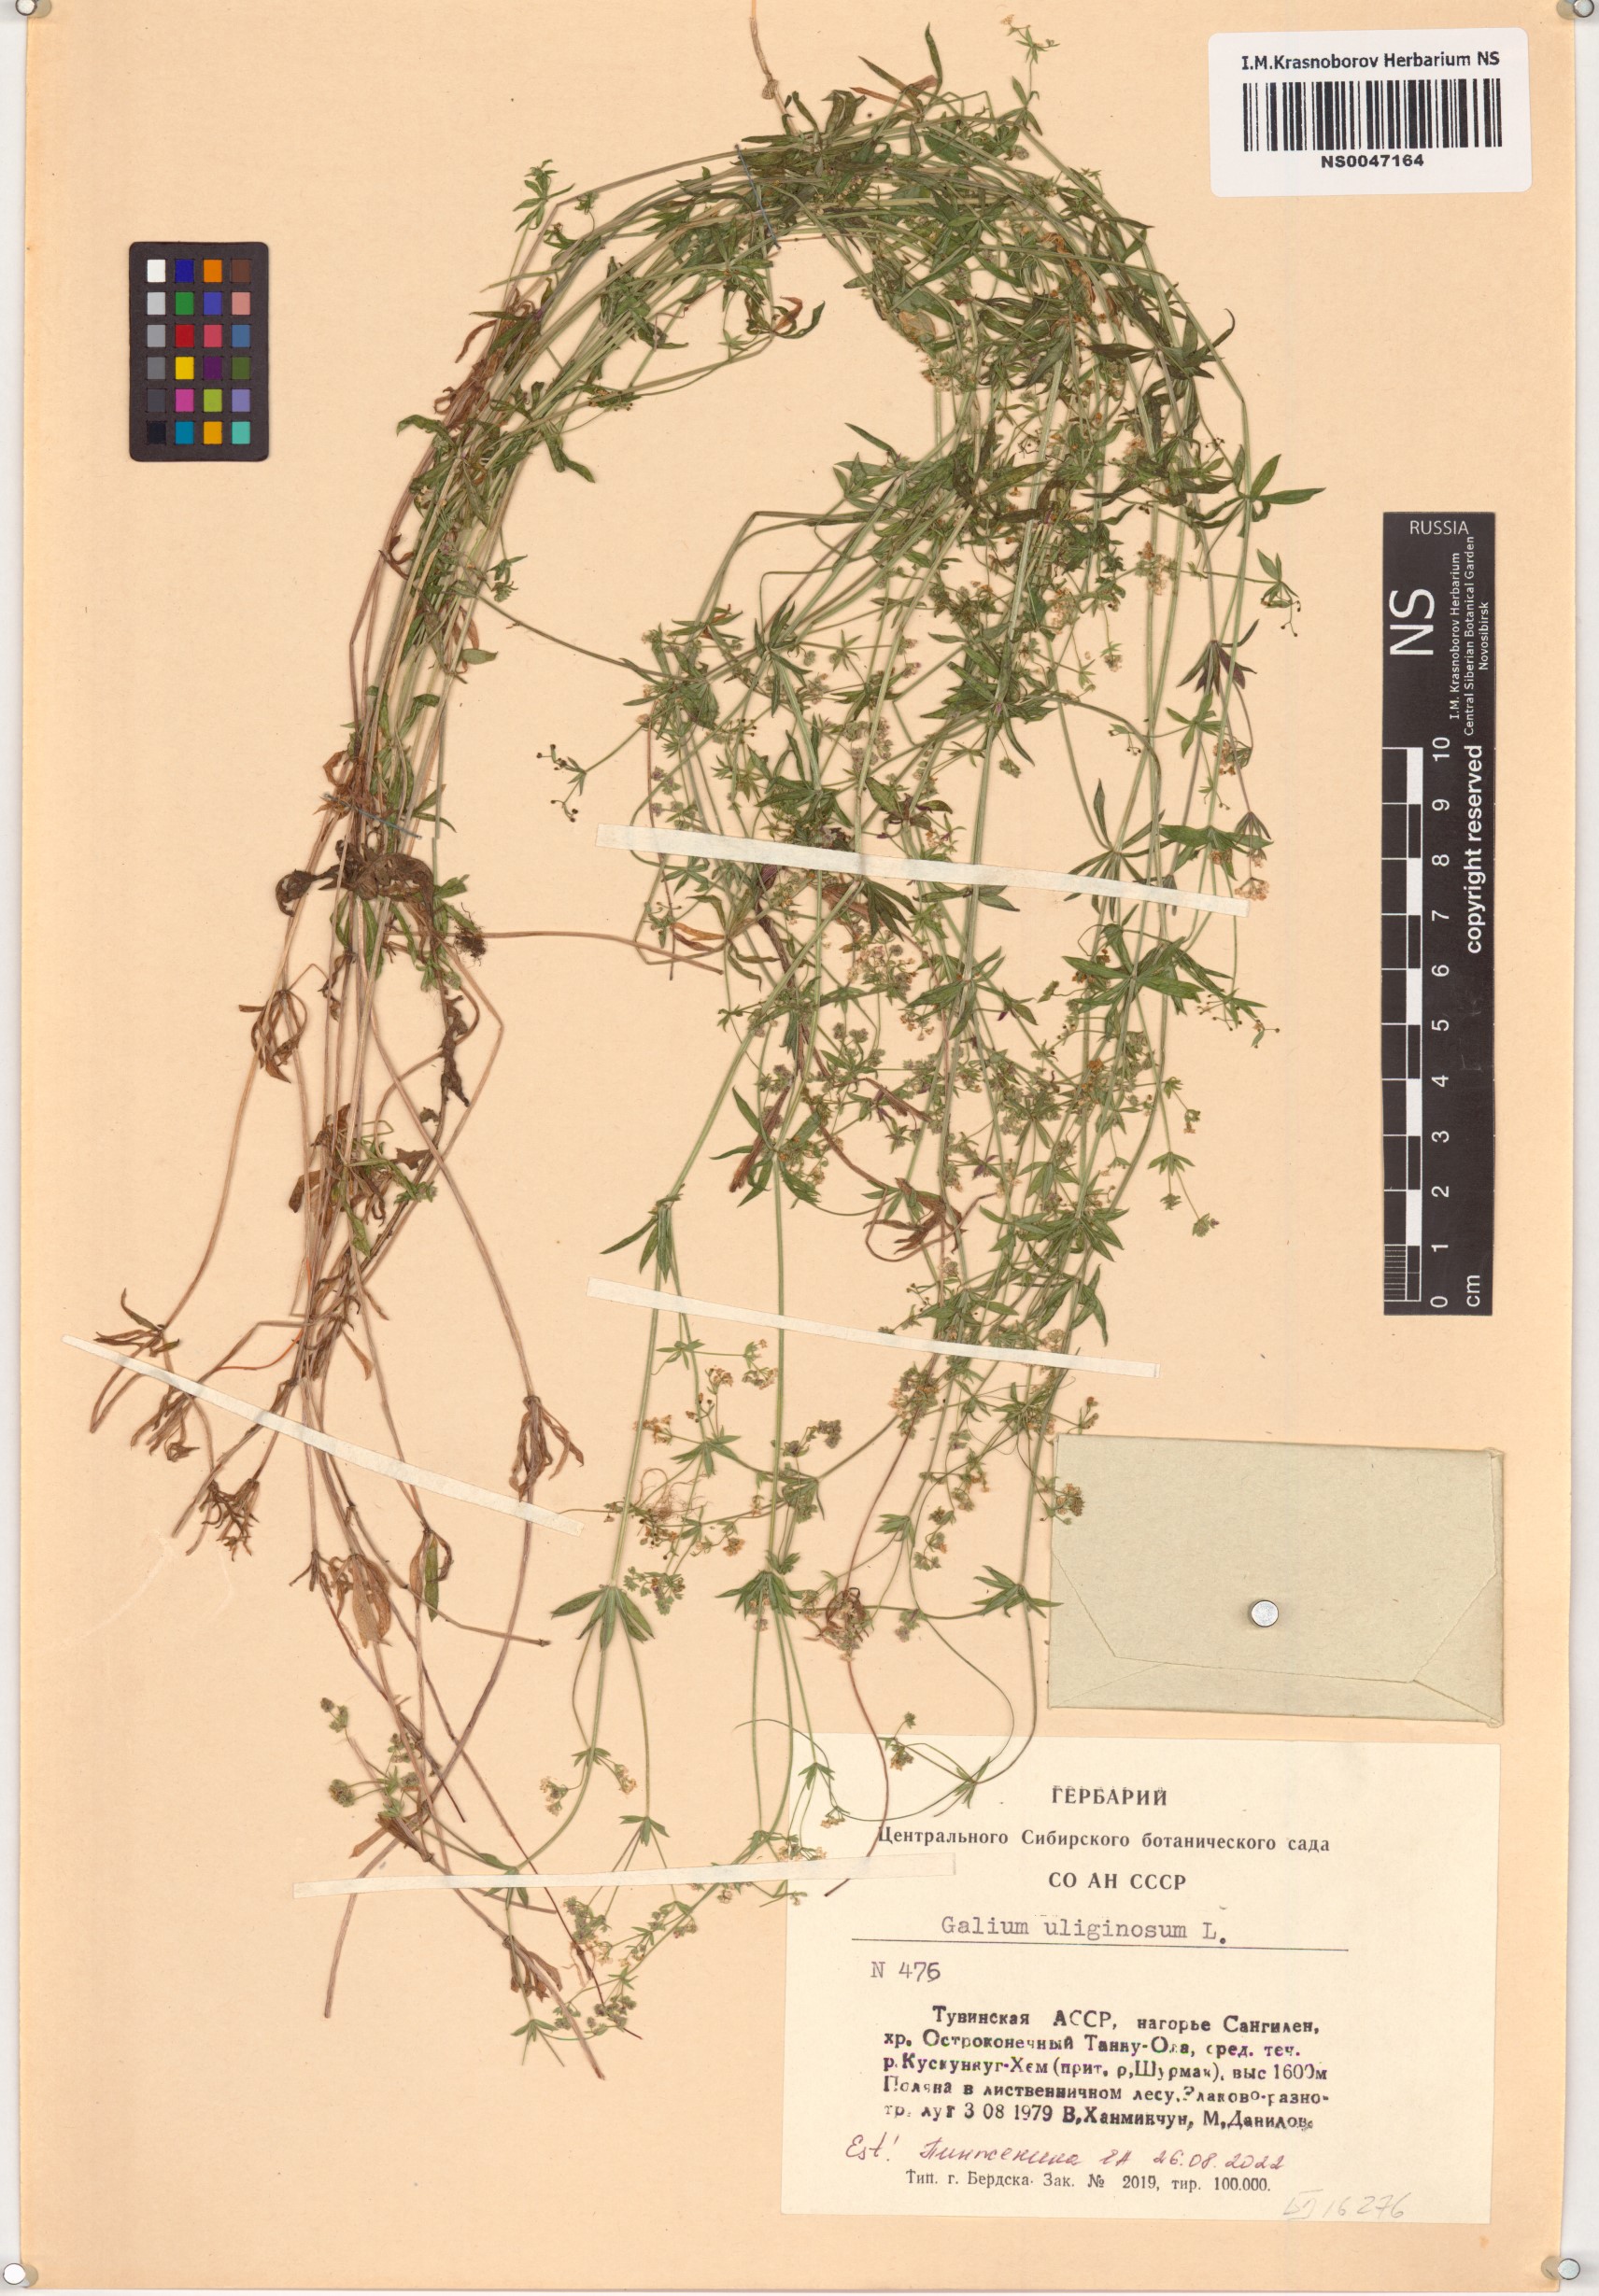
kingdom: Plantae
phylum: Tracheophyta
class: Magnoliopsida
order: Gentianales
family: Rubiaceae
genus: Galium
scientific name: Galium uliginosum
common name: Fen bedstraw
